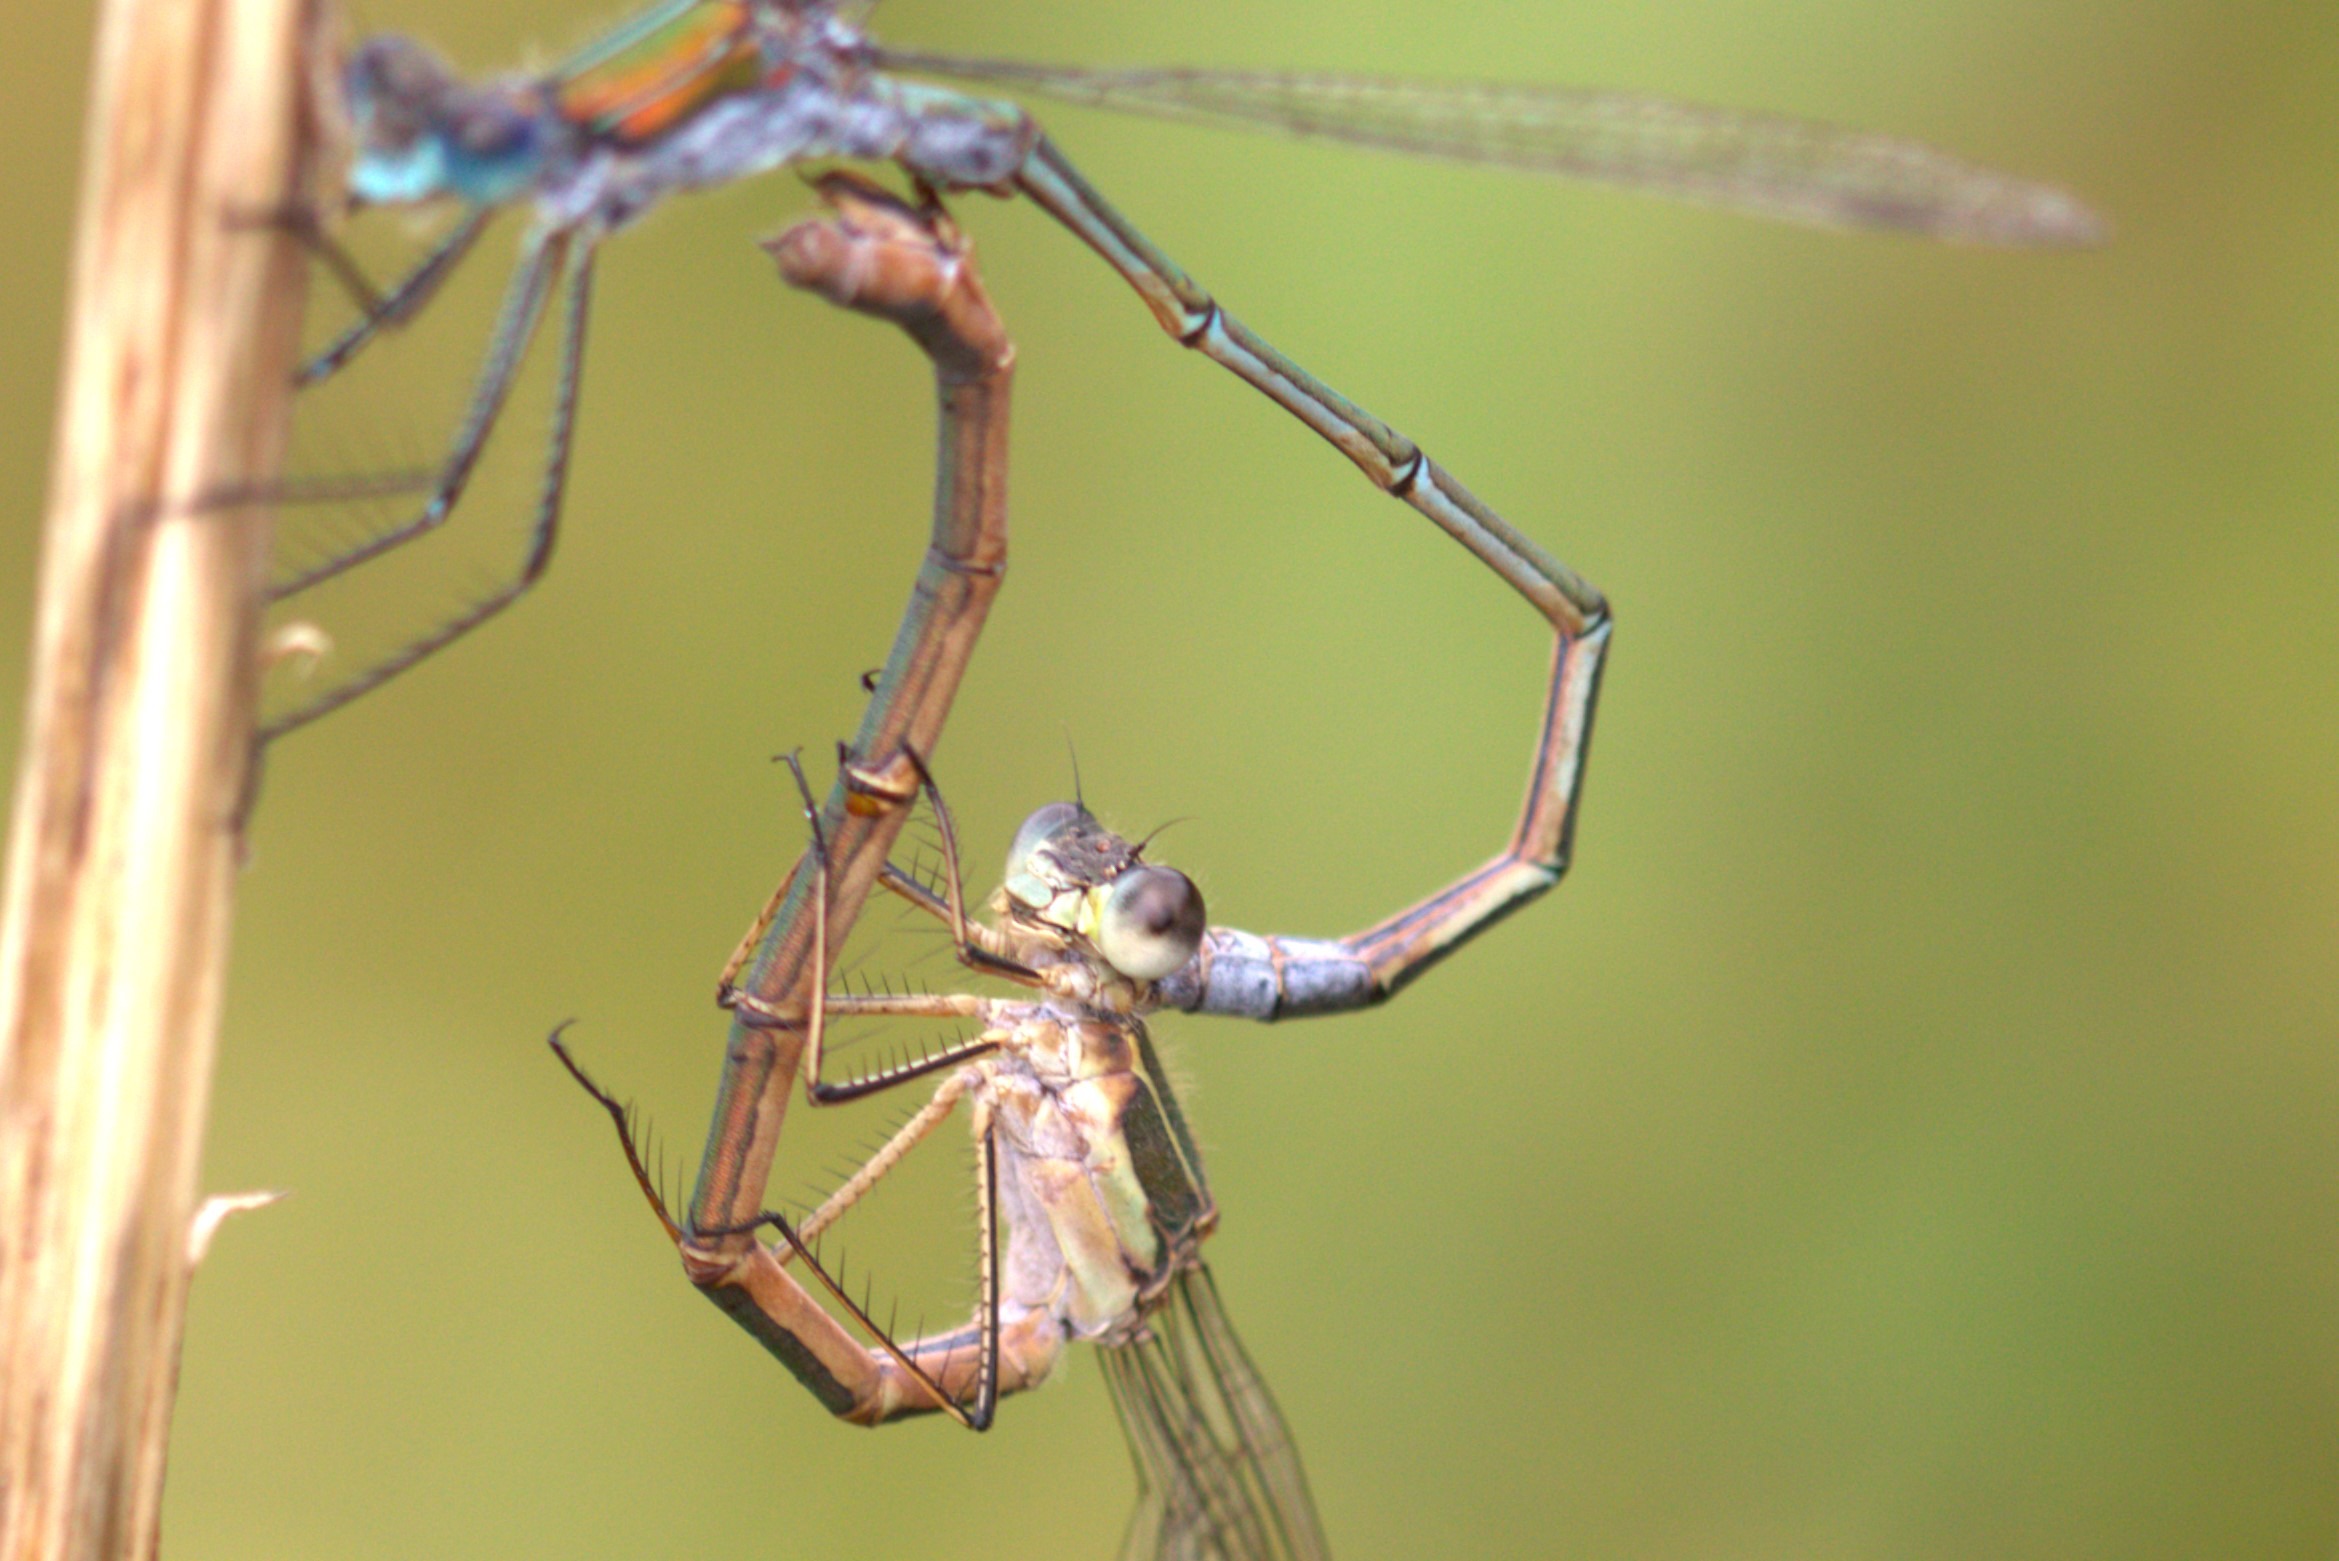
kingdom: Animalia
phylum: Arthropoda
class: Insecta
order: Odonata
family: Lestidae
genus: Lestes
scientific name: Lestes sponsa
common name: Almindelig kobbervandnymfe
